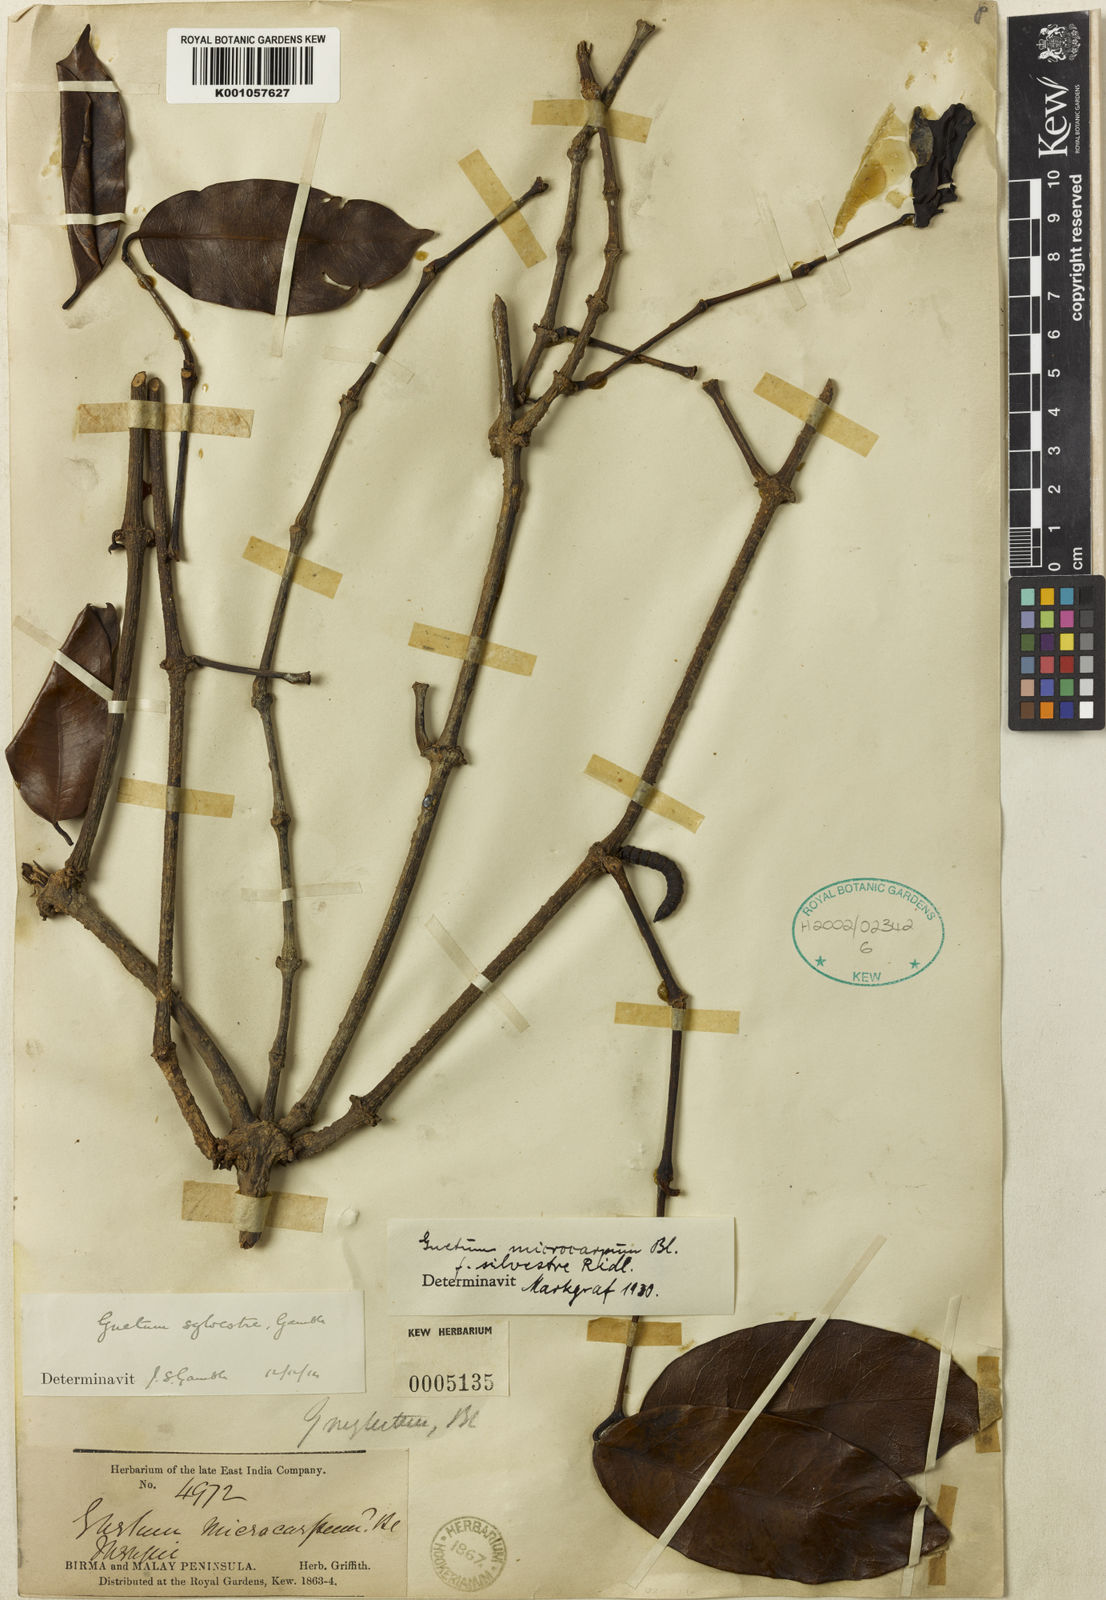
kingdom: Plantae
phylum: Tracheophyta
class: Gnetopsida
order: Gnetales
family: Gnetaceae
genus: Gnetum
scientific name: Gnetum
